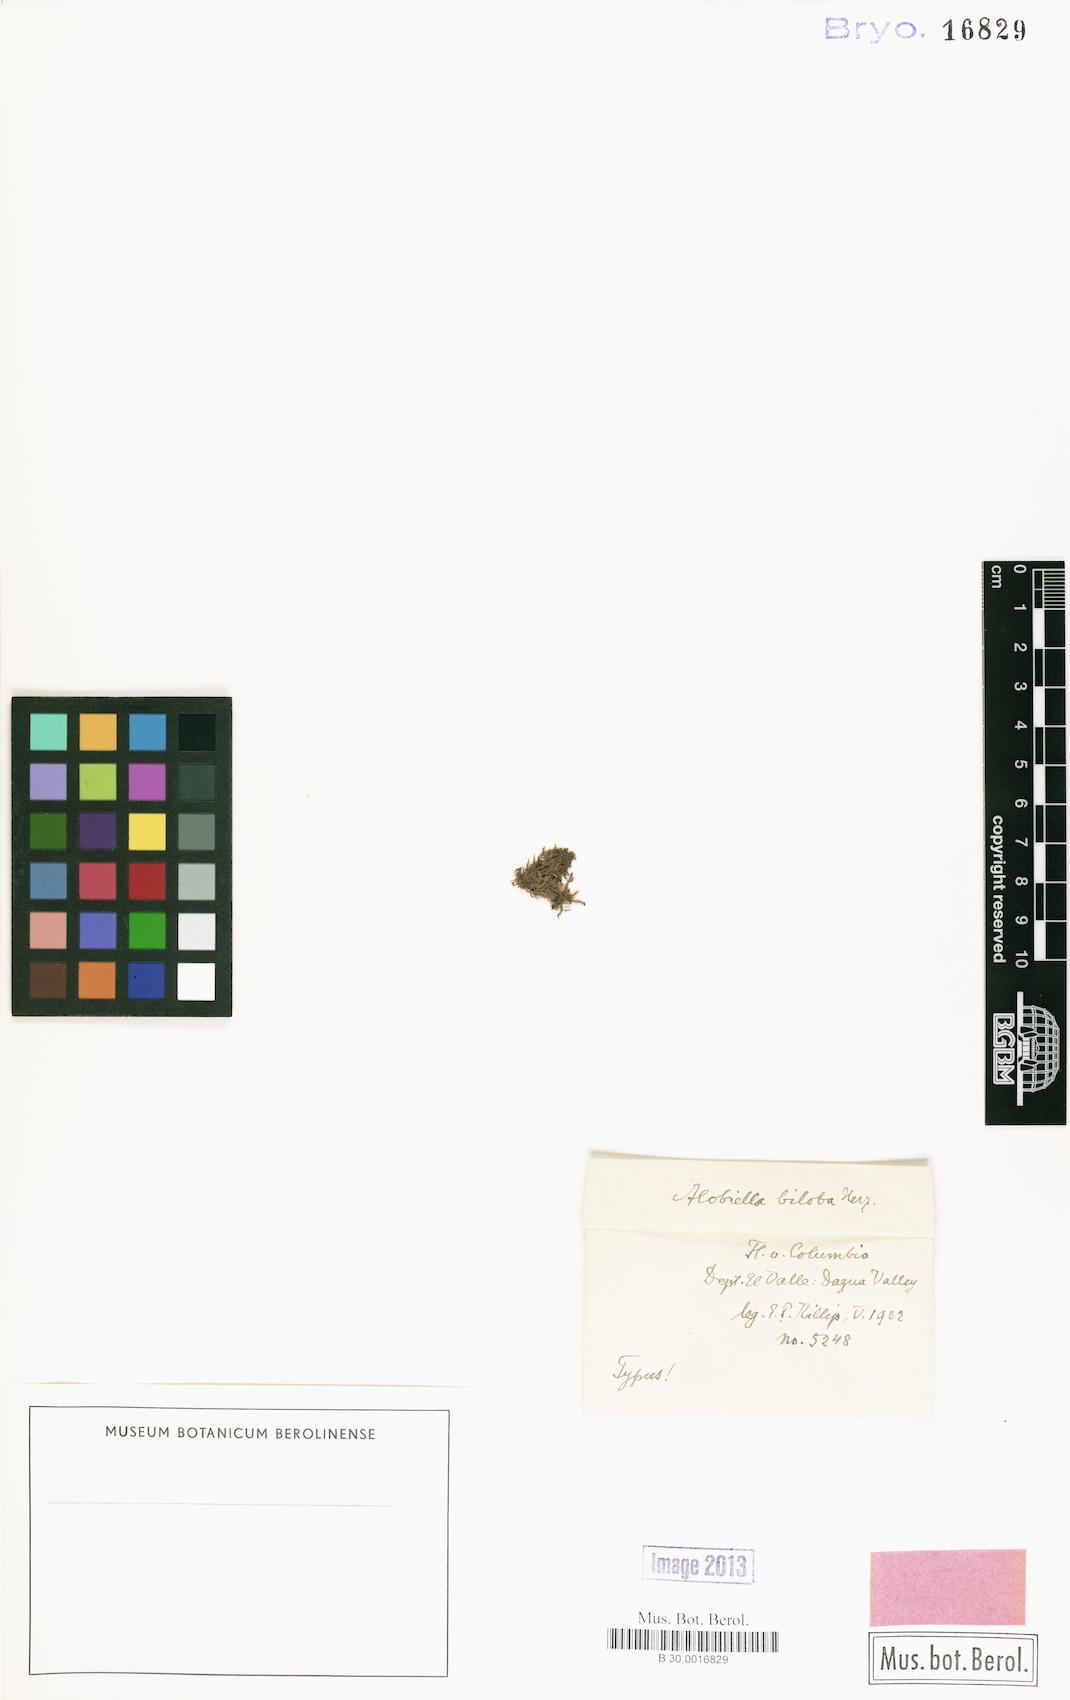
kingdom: Plantae
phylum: Marchantiophyta
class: Jungermanniopsida
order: Jungermanniales
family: Cephaloziaceae
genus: Fuscocephaloziopsis
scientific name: Fuscocephaloziopsis pulvinata
